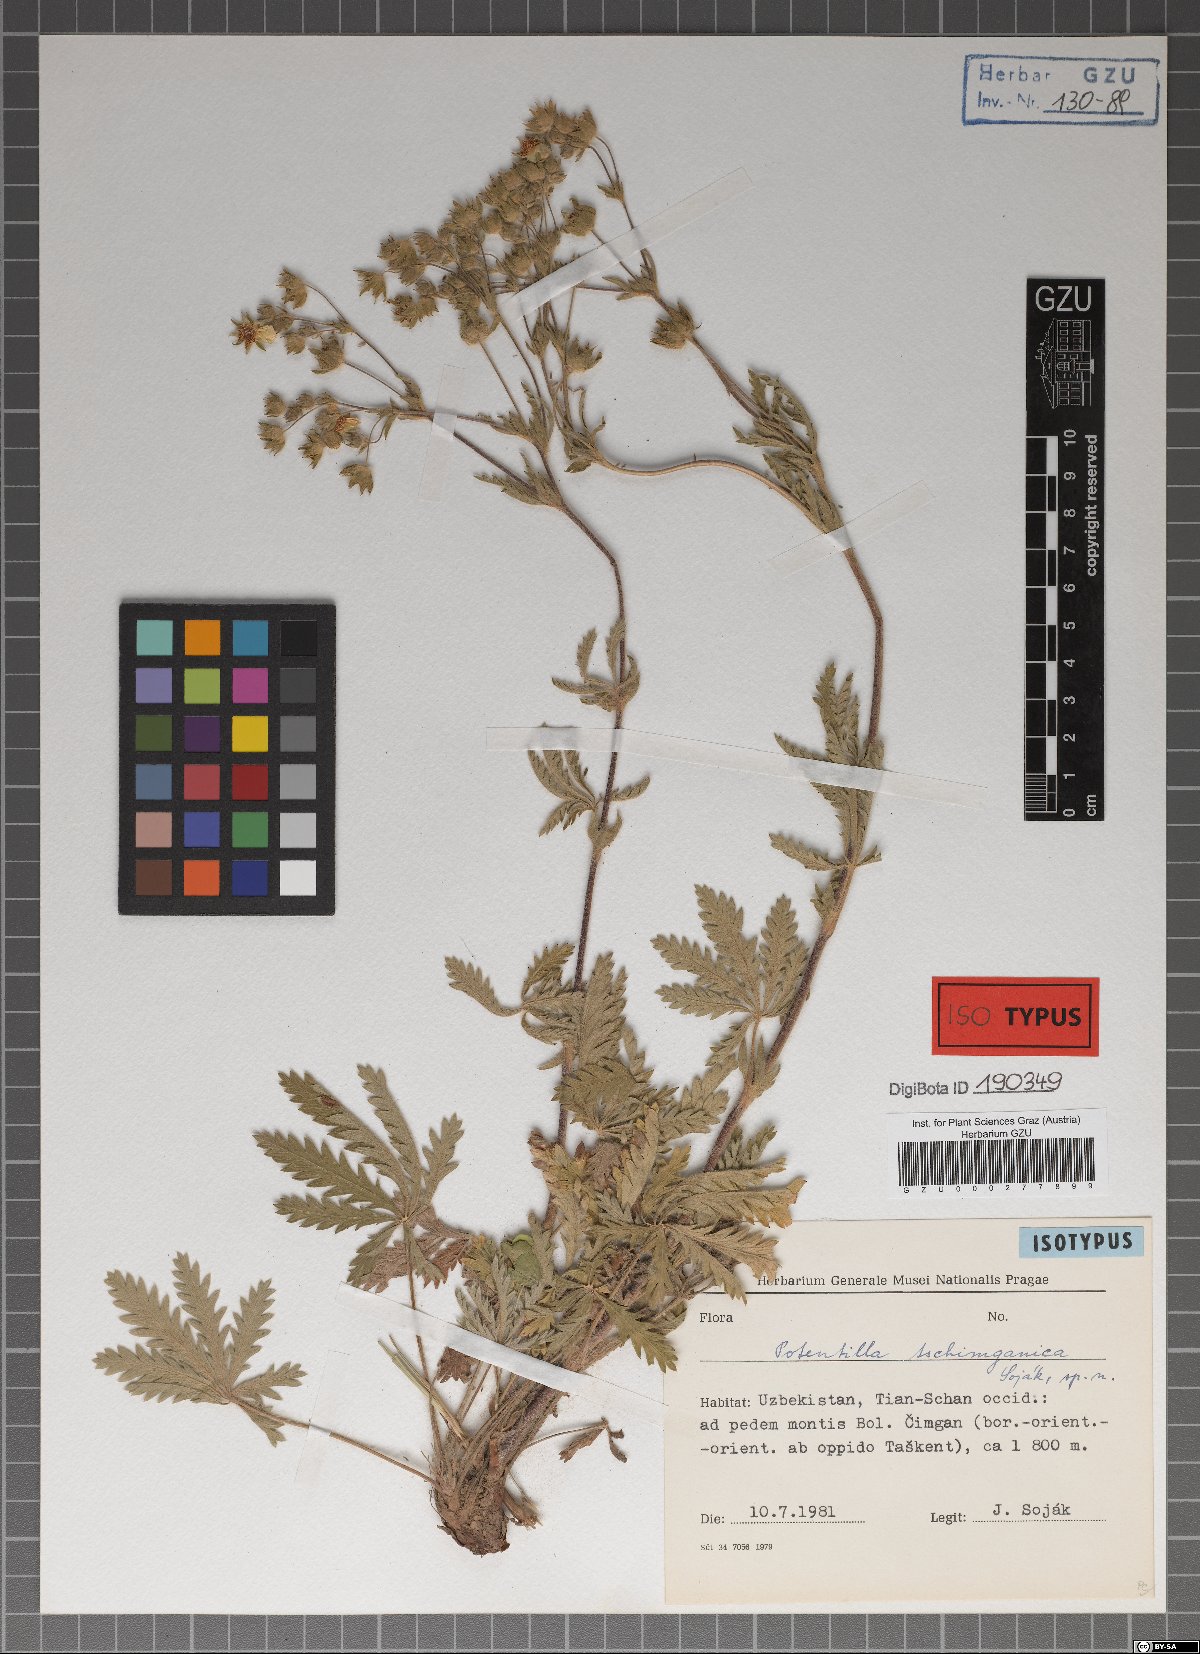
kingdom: Plantae
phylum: Tracheophyta
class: Magnoliopsida
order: Rosales
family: Rosaceae
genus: Potentilla
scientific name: Potentilla tschimganica
